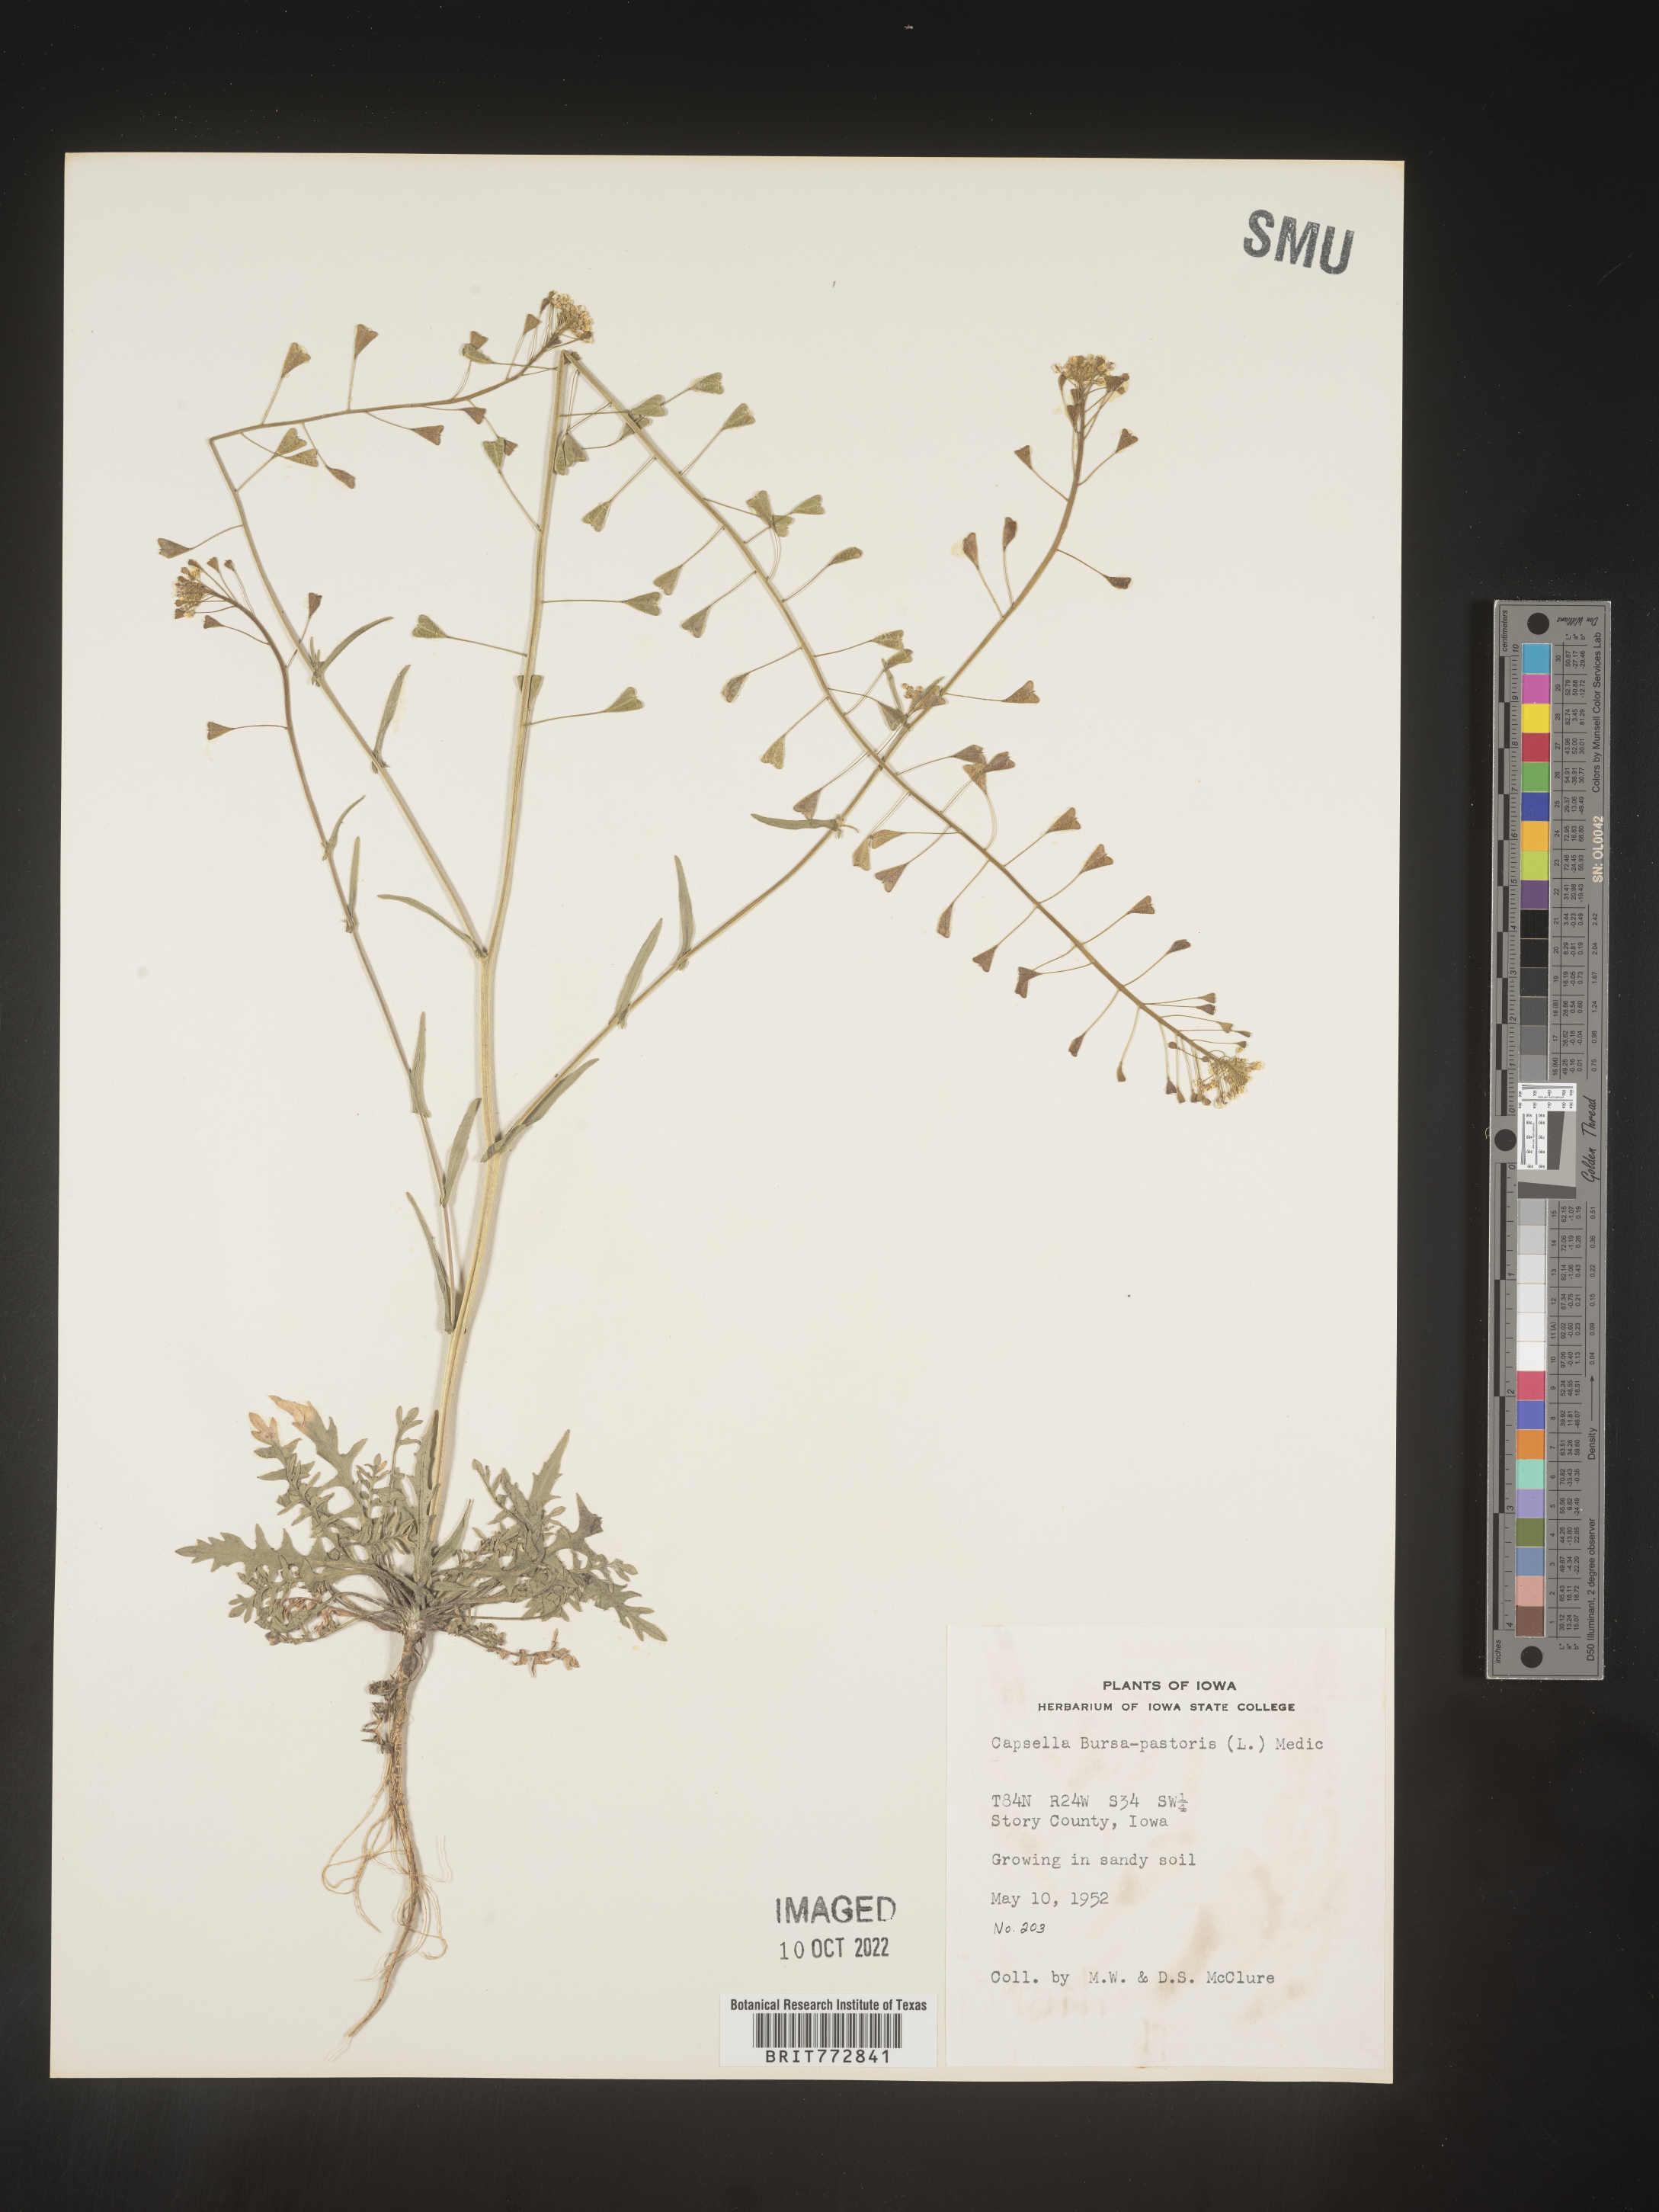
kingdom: Plantae
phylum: Tracheophyta
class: Magnoliopsida
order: Brassicales
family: Brassicaceae
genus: Capsella
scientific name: Capsella bursa-pastoris
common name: Shepherd's purse
